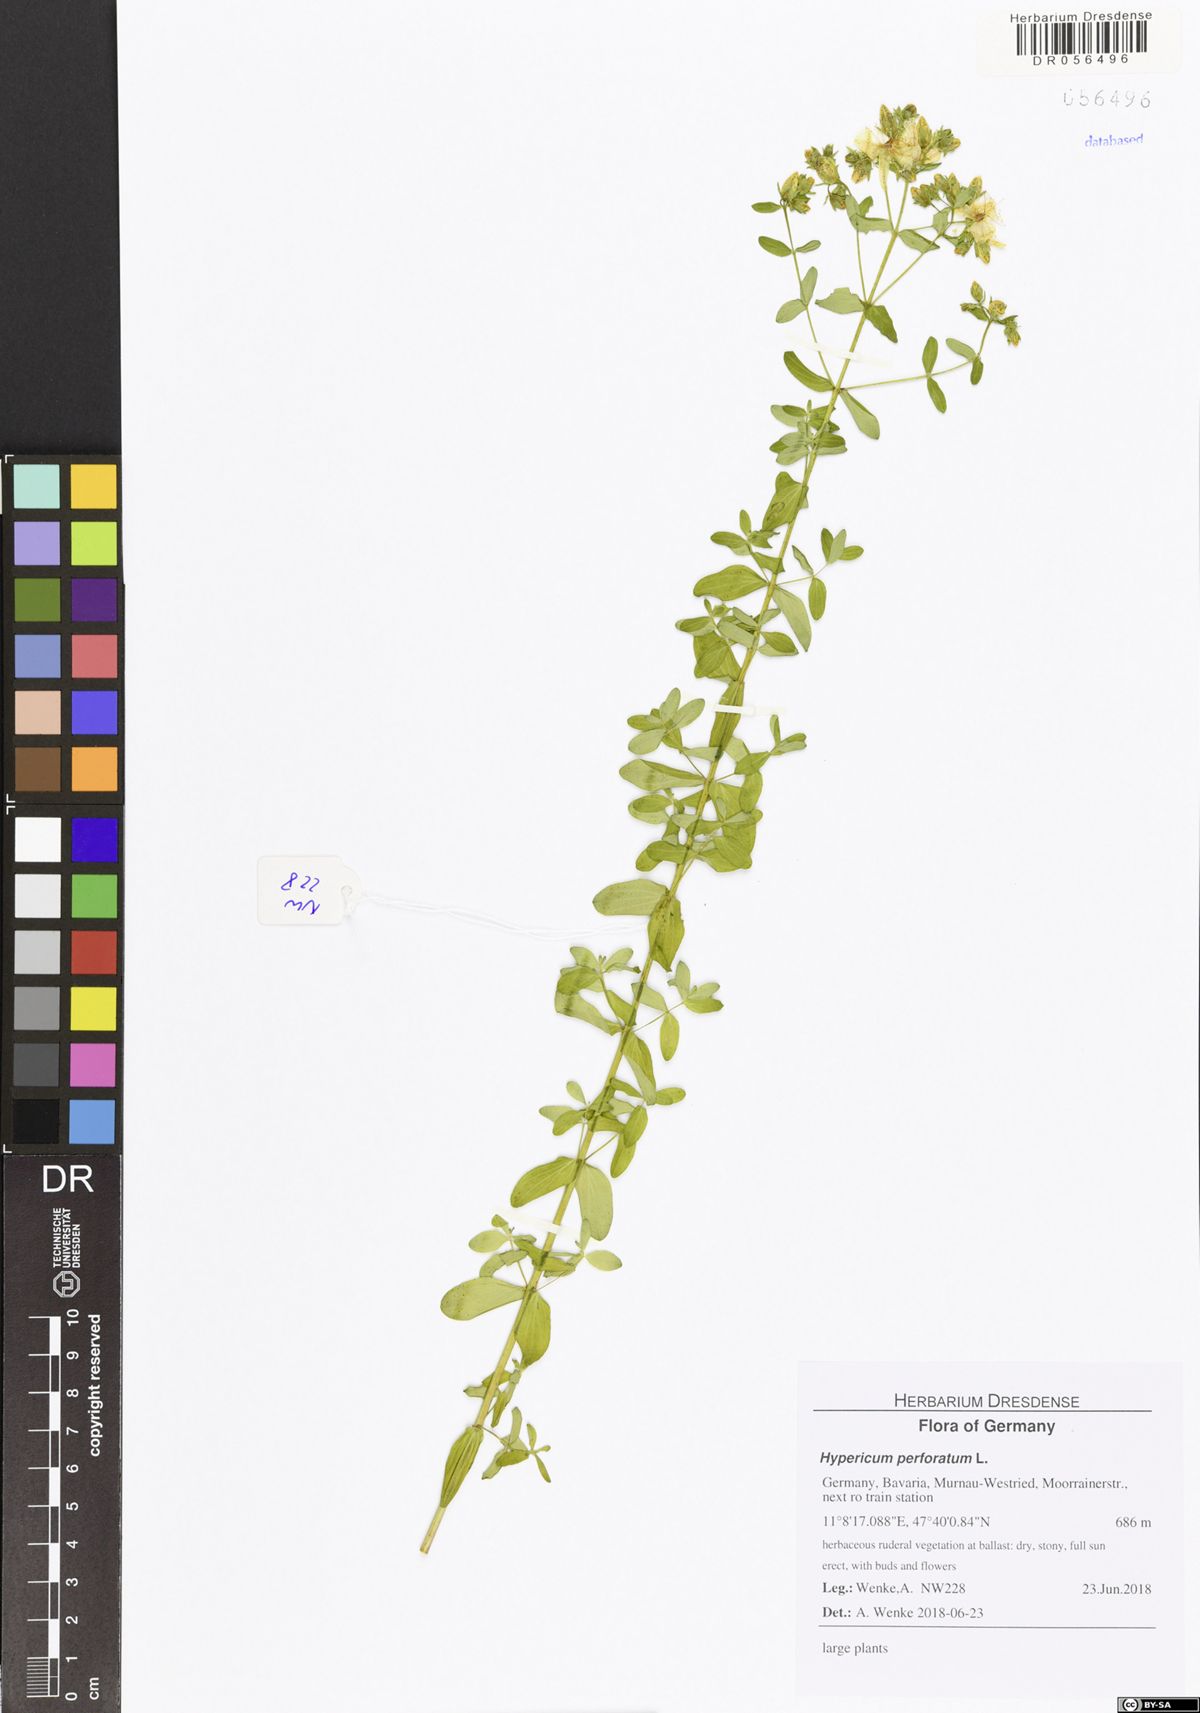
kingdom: Plantae
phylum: Tracheophyta
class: Magnoliopsida
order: Malpighiales
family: Hypericaceae
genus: Hypericum
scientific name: Hypericum perforatum
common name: Common st. johnswort
